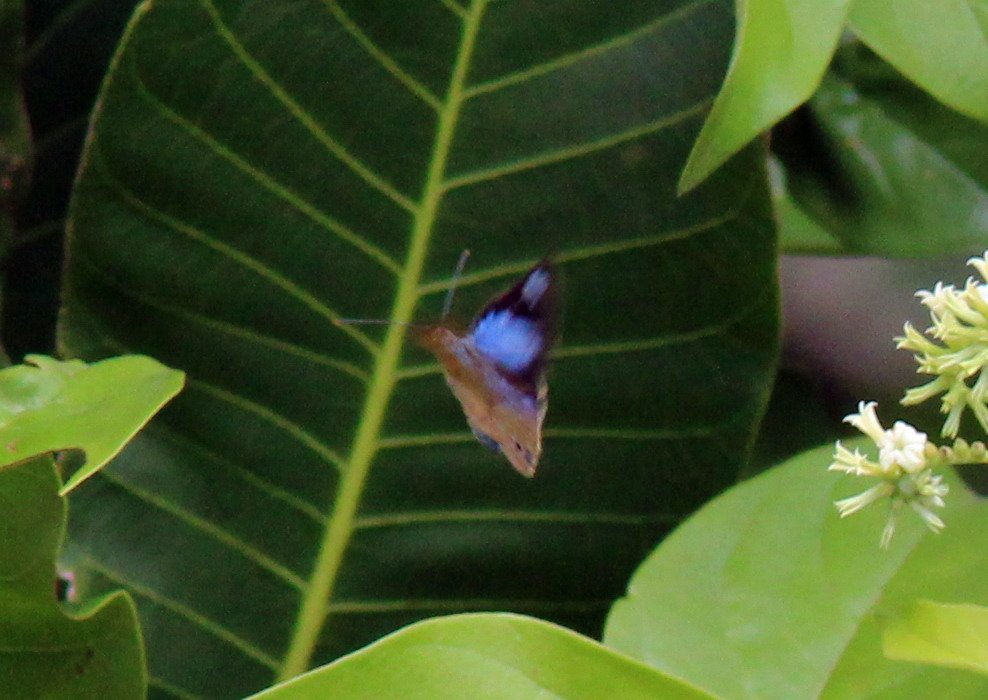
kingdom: Animalia
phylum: Arthropoda
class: Insecta
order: Lepidoptera
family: Nymphalidae
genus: Ethope
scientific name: Ethope
